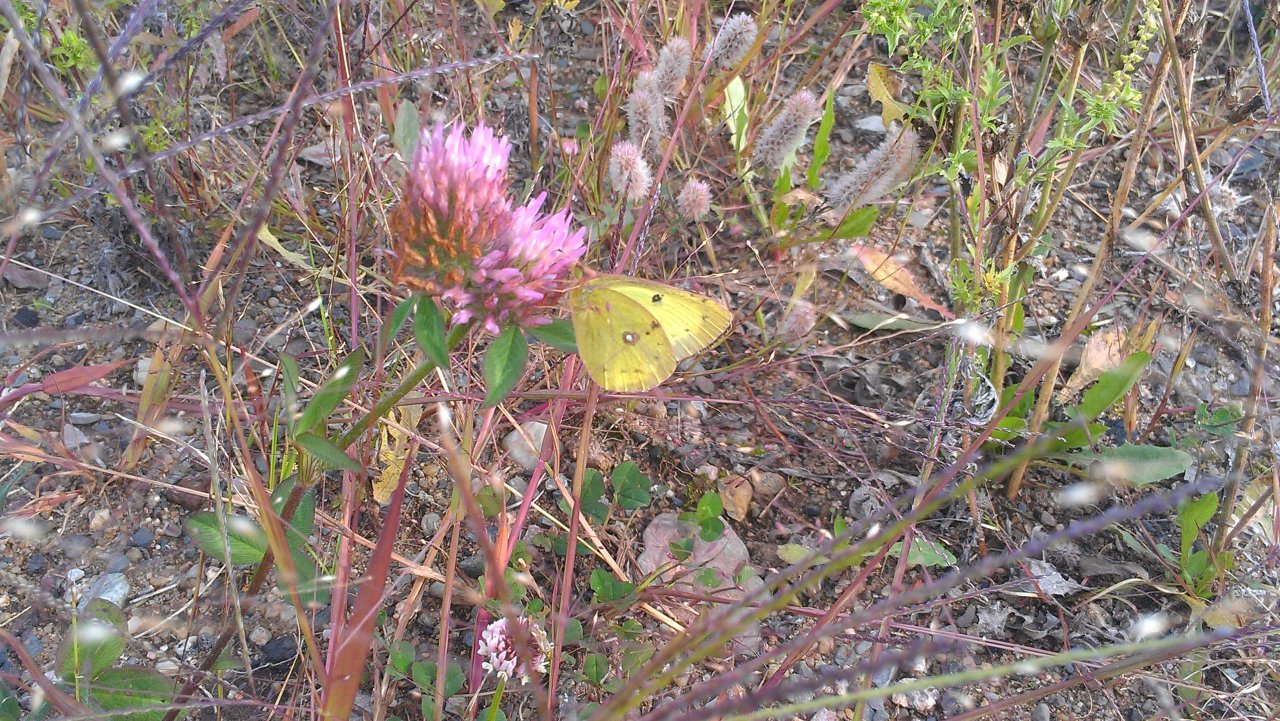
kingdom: Animalia
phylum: Arthropoda
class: Insecta
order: Lepidoptera
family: Pieridae
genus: Colias
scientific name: Colias philodice
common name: Clouded Sulphur
